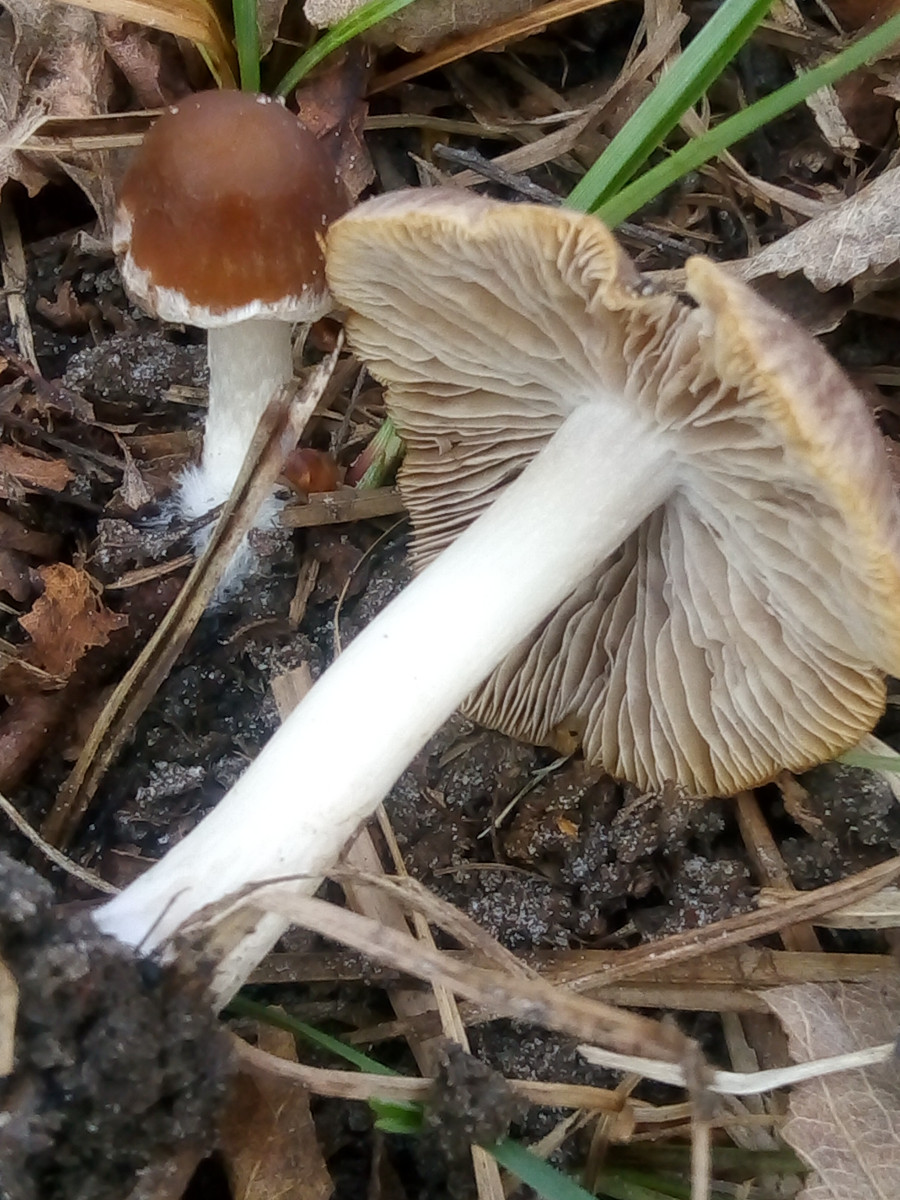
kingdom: Fungi
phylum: Basidiomycota
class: Agaricomycetes
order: Agaricales
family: Psathyrellaceae
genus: Psathyrella
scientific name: Psathyrella spadiceogrisea
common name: gråbrun mørkhat
